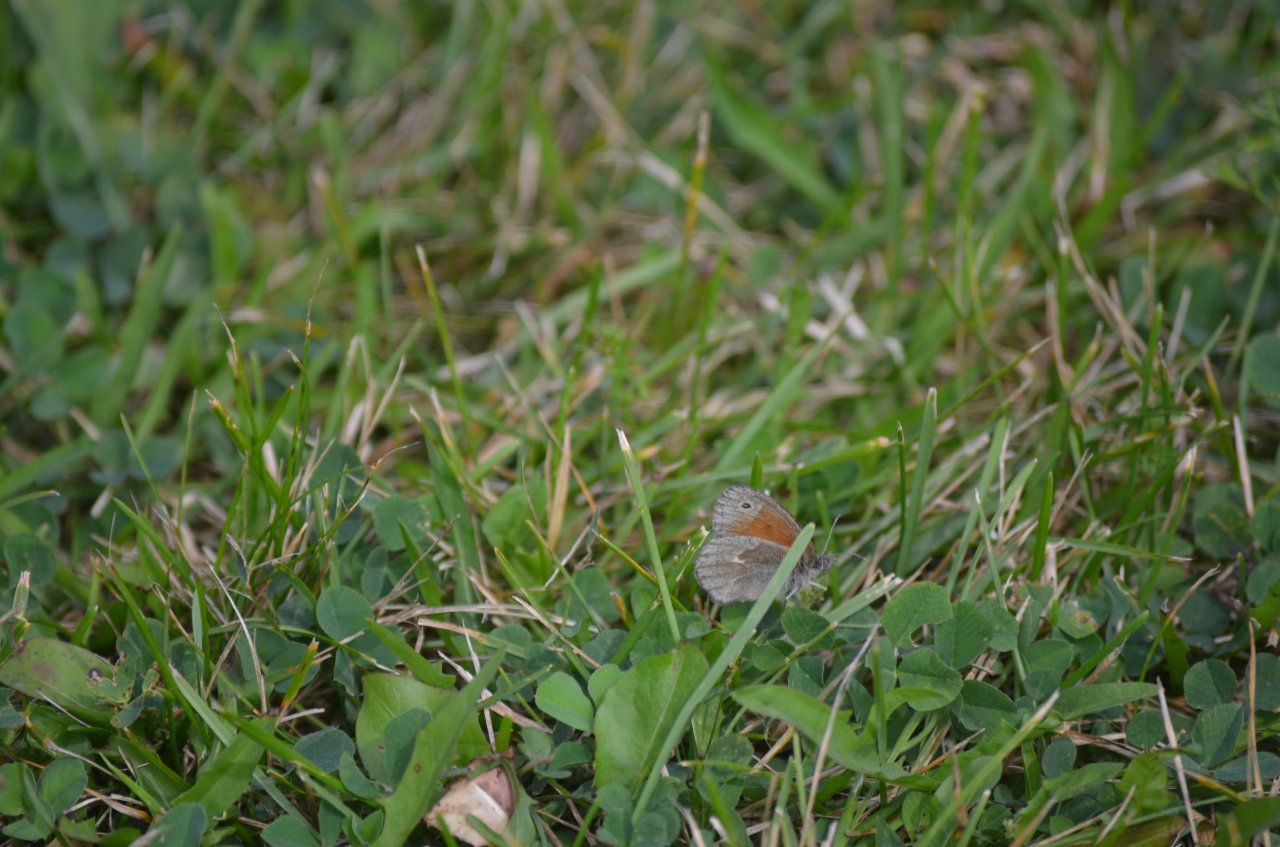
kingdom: Animalia
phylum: Arthropoda
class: Insecta
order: Lepidoptera
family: Nymphalidae
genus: Coenonympha
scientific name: Coenonympha tullia
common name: Large Heath
